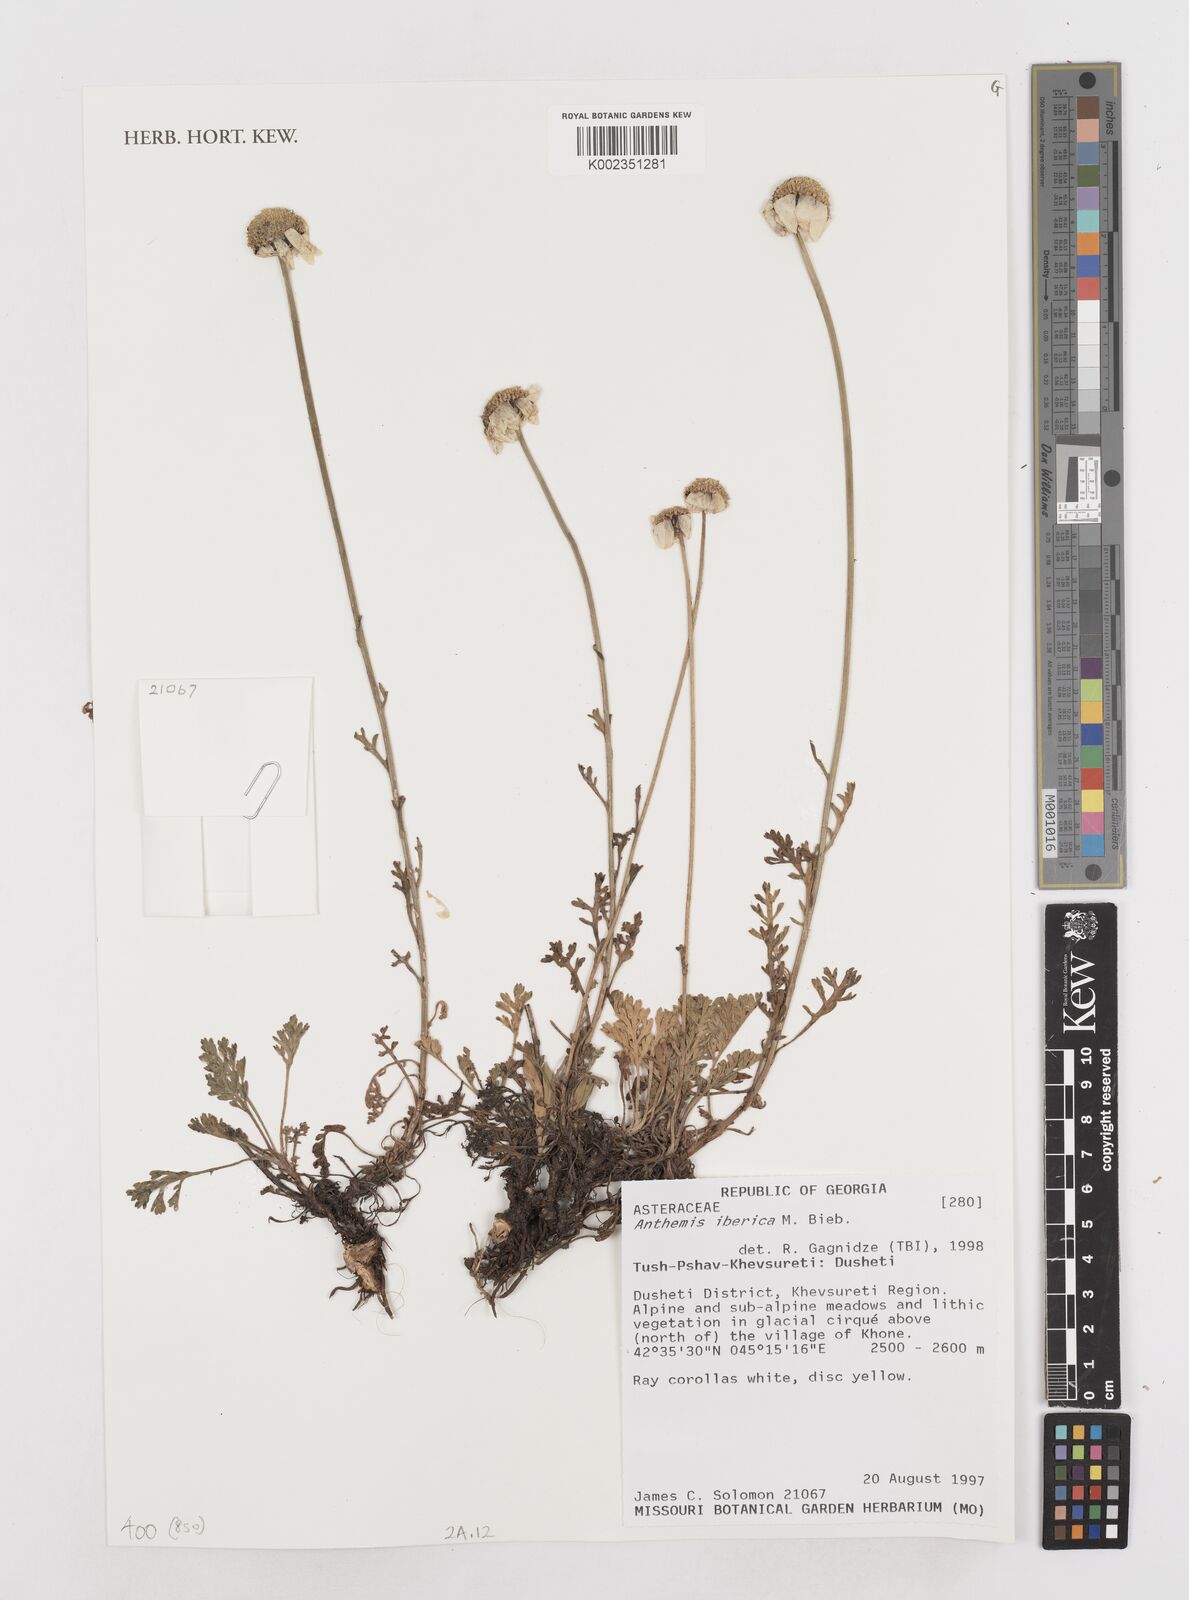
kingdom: Plantae
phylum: Tracheophyta
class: Magnoliopsida
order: Asterales
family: Asteraceae
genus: Anthemis
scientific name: Anthemis cretica
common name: Mountain dog-daisy
